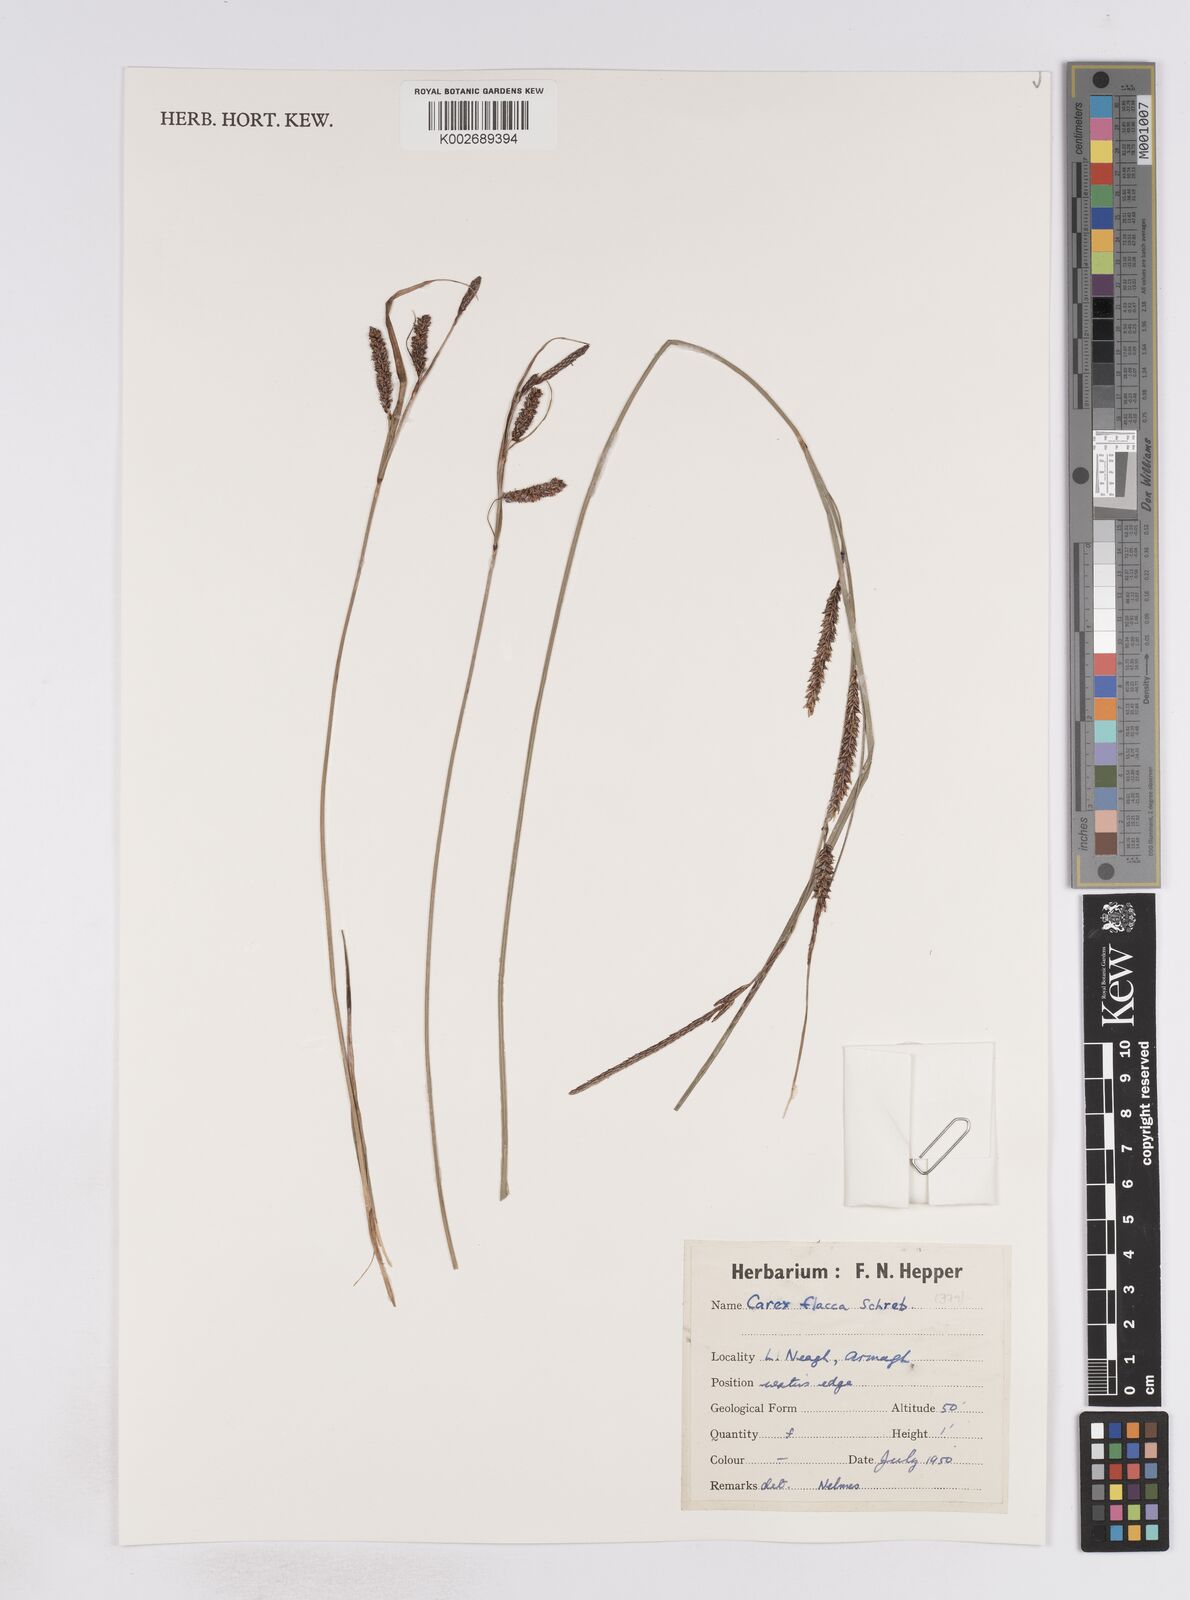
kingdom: Plantae
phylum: Tracheophyta
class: Liliopsida
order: Poales
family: Cyperaceae
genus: Carex
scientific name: Carex flacca
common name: Glaucous sedge
